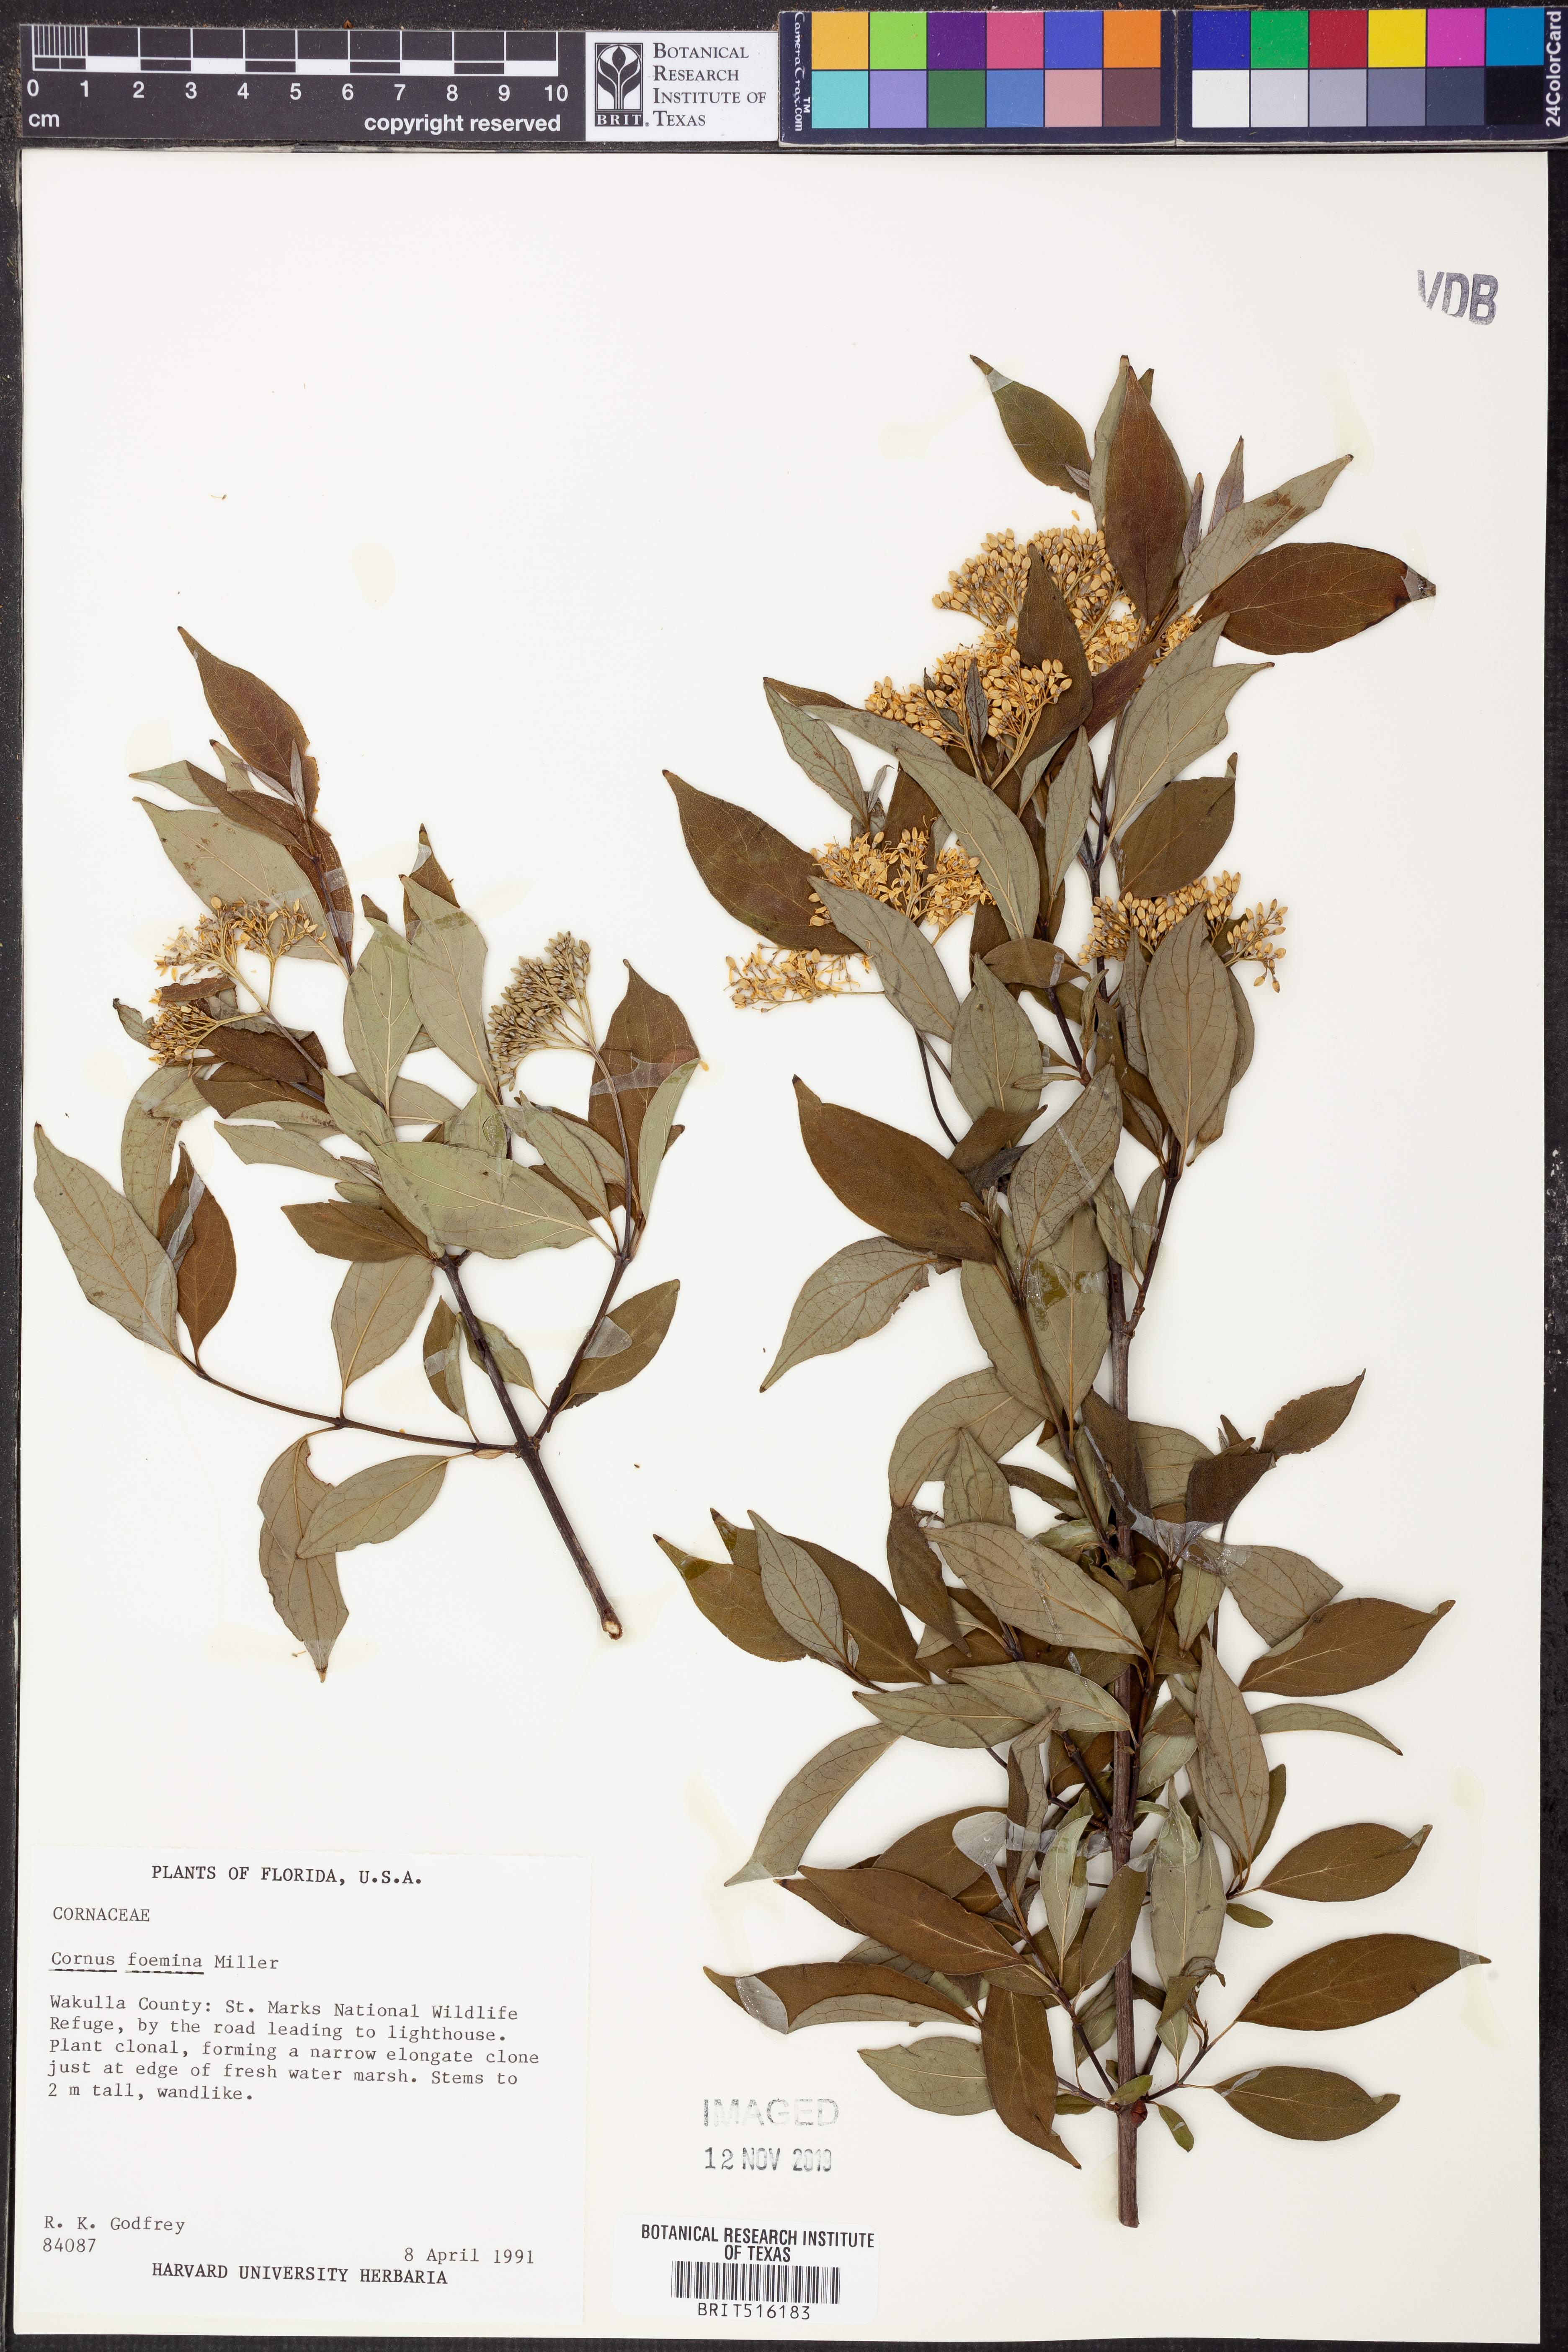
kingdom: Plantae
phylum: Tracheophyta
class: Magnoliopsida
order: Cornales
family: Cornaceae
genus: Cornus
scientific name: Cornus foemina
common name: Swamp dogwood
